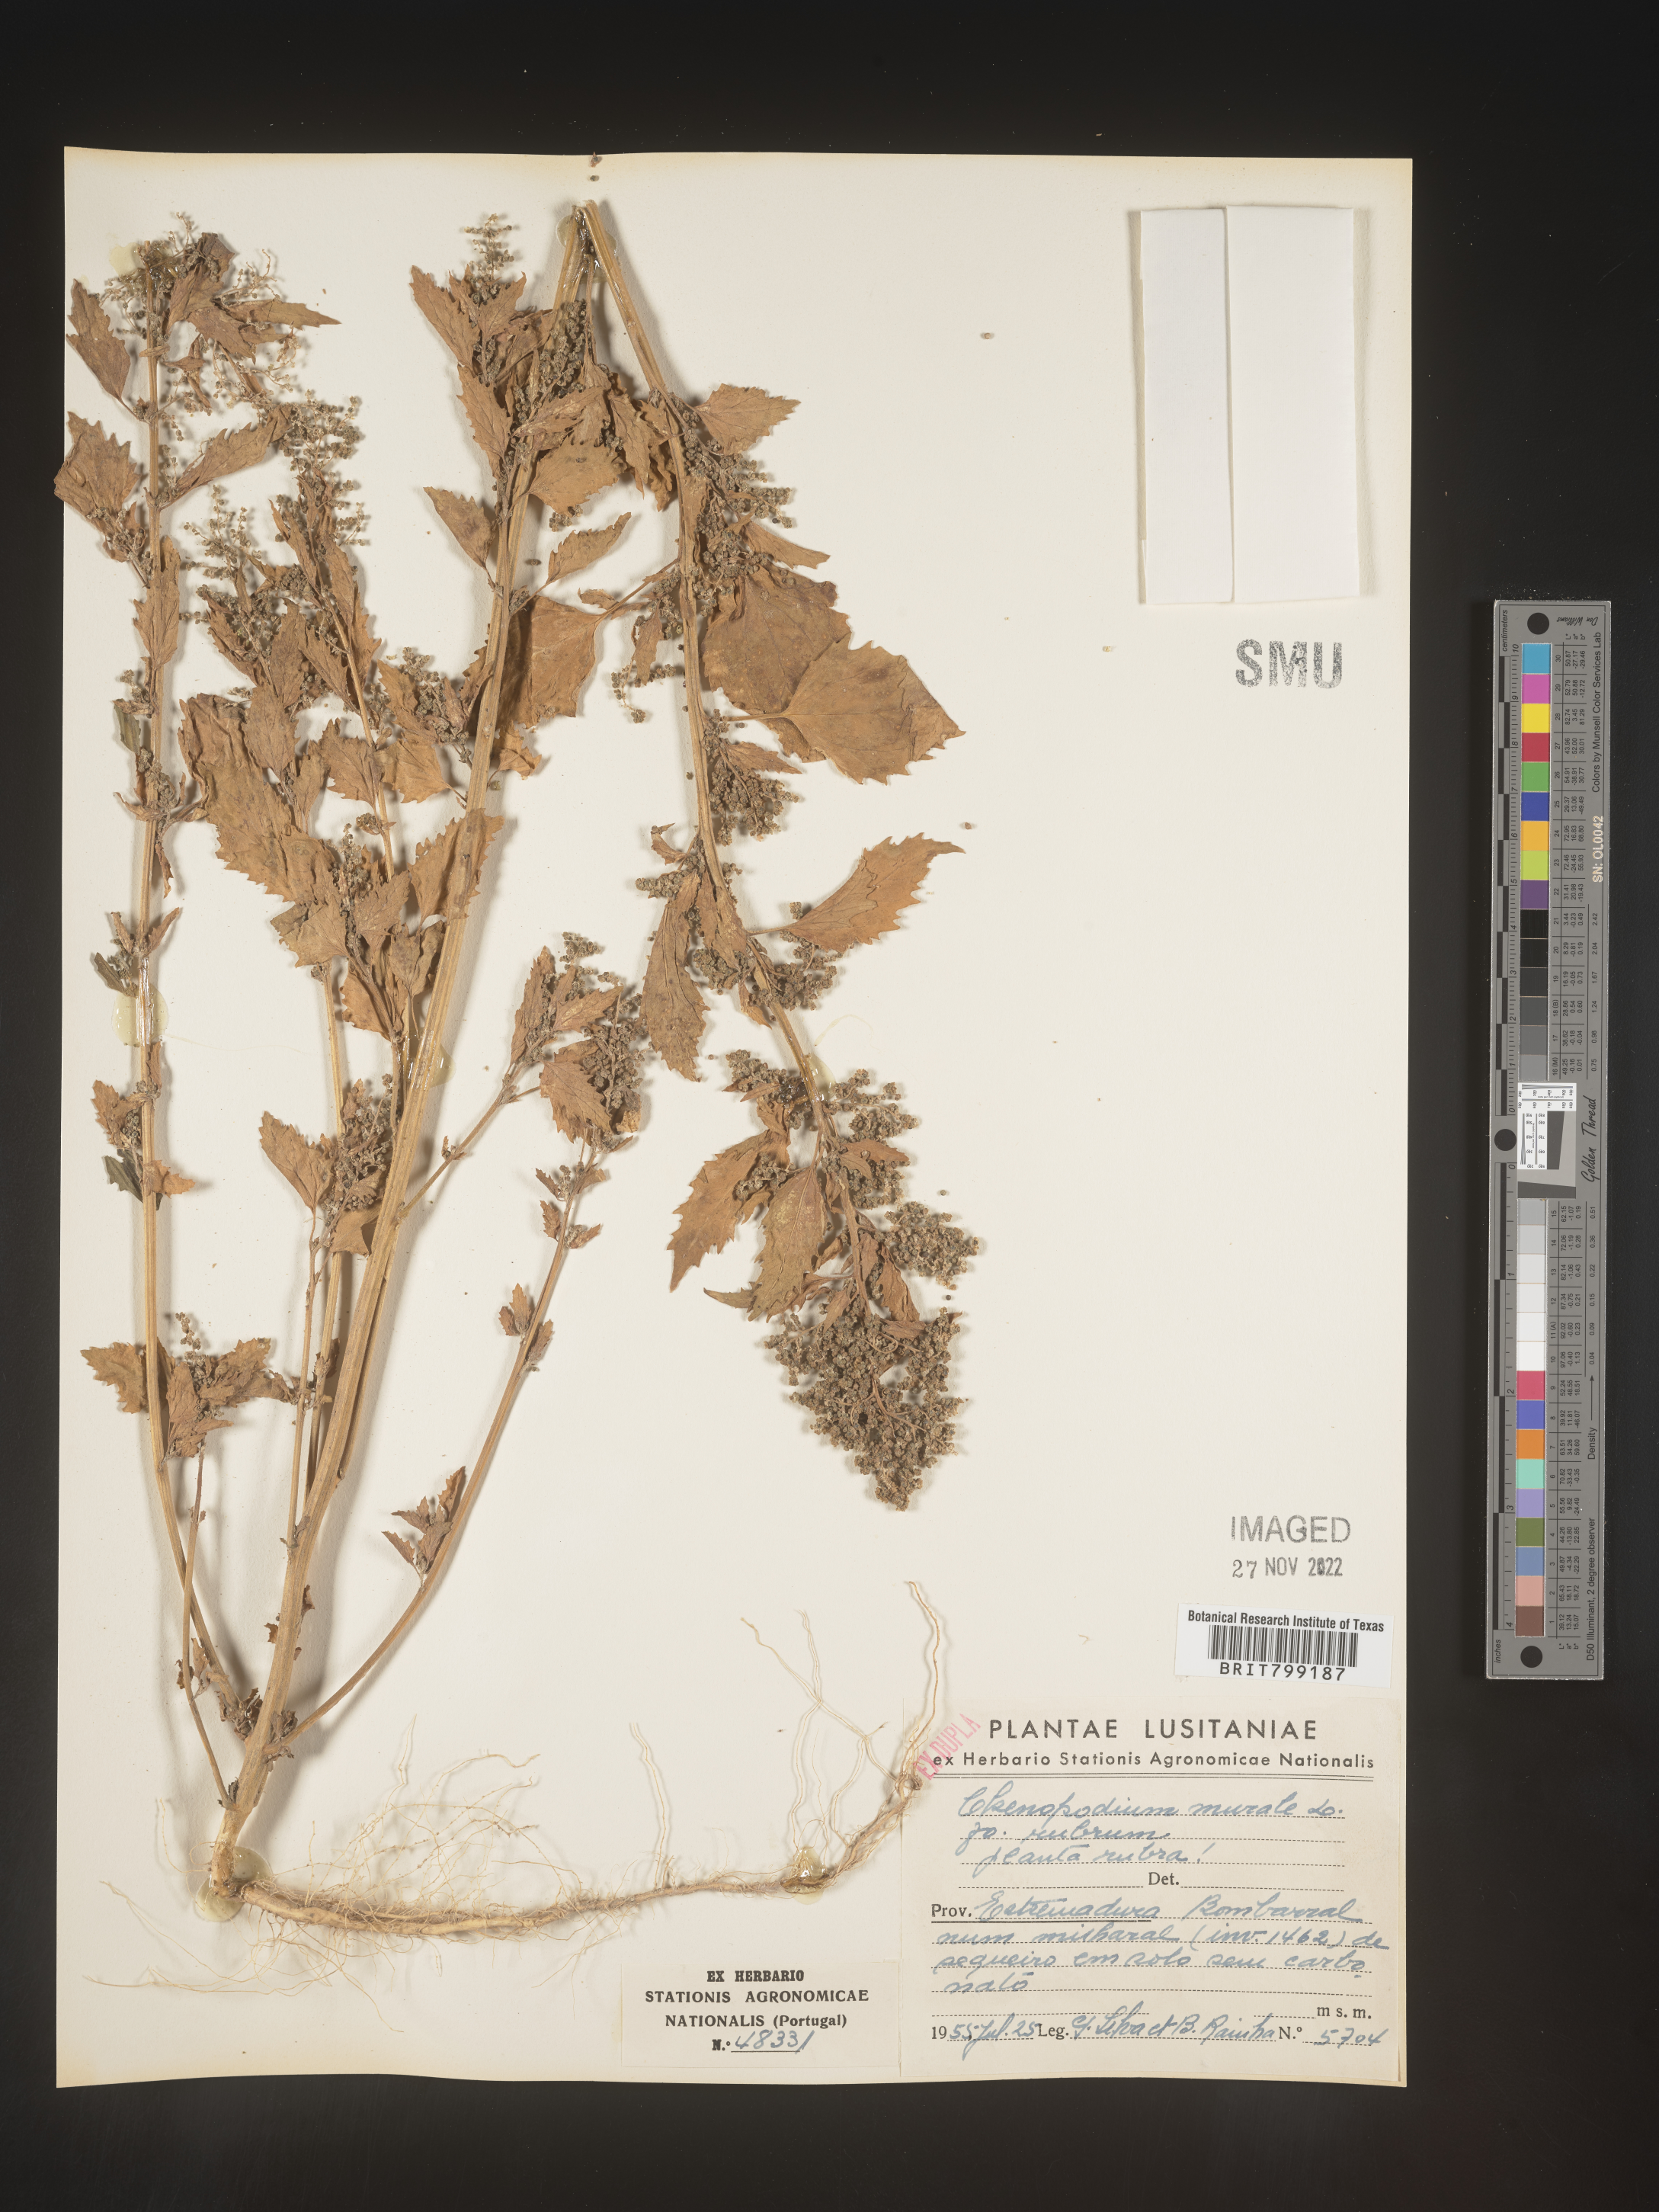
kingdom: Plantae
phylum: Tracheophyta
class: Magnoliopsida
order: Caryophyllales
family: Amaranthaceae
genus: Chenopodiastrum
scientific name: Chenopodiastrum murale
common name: Sowbane
